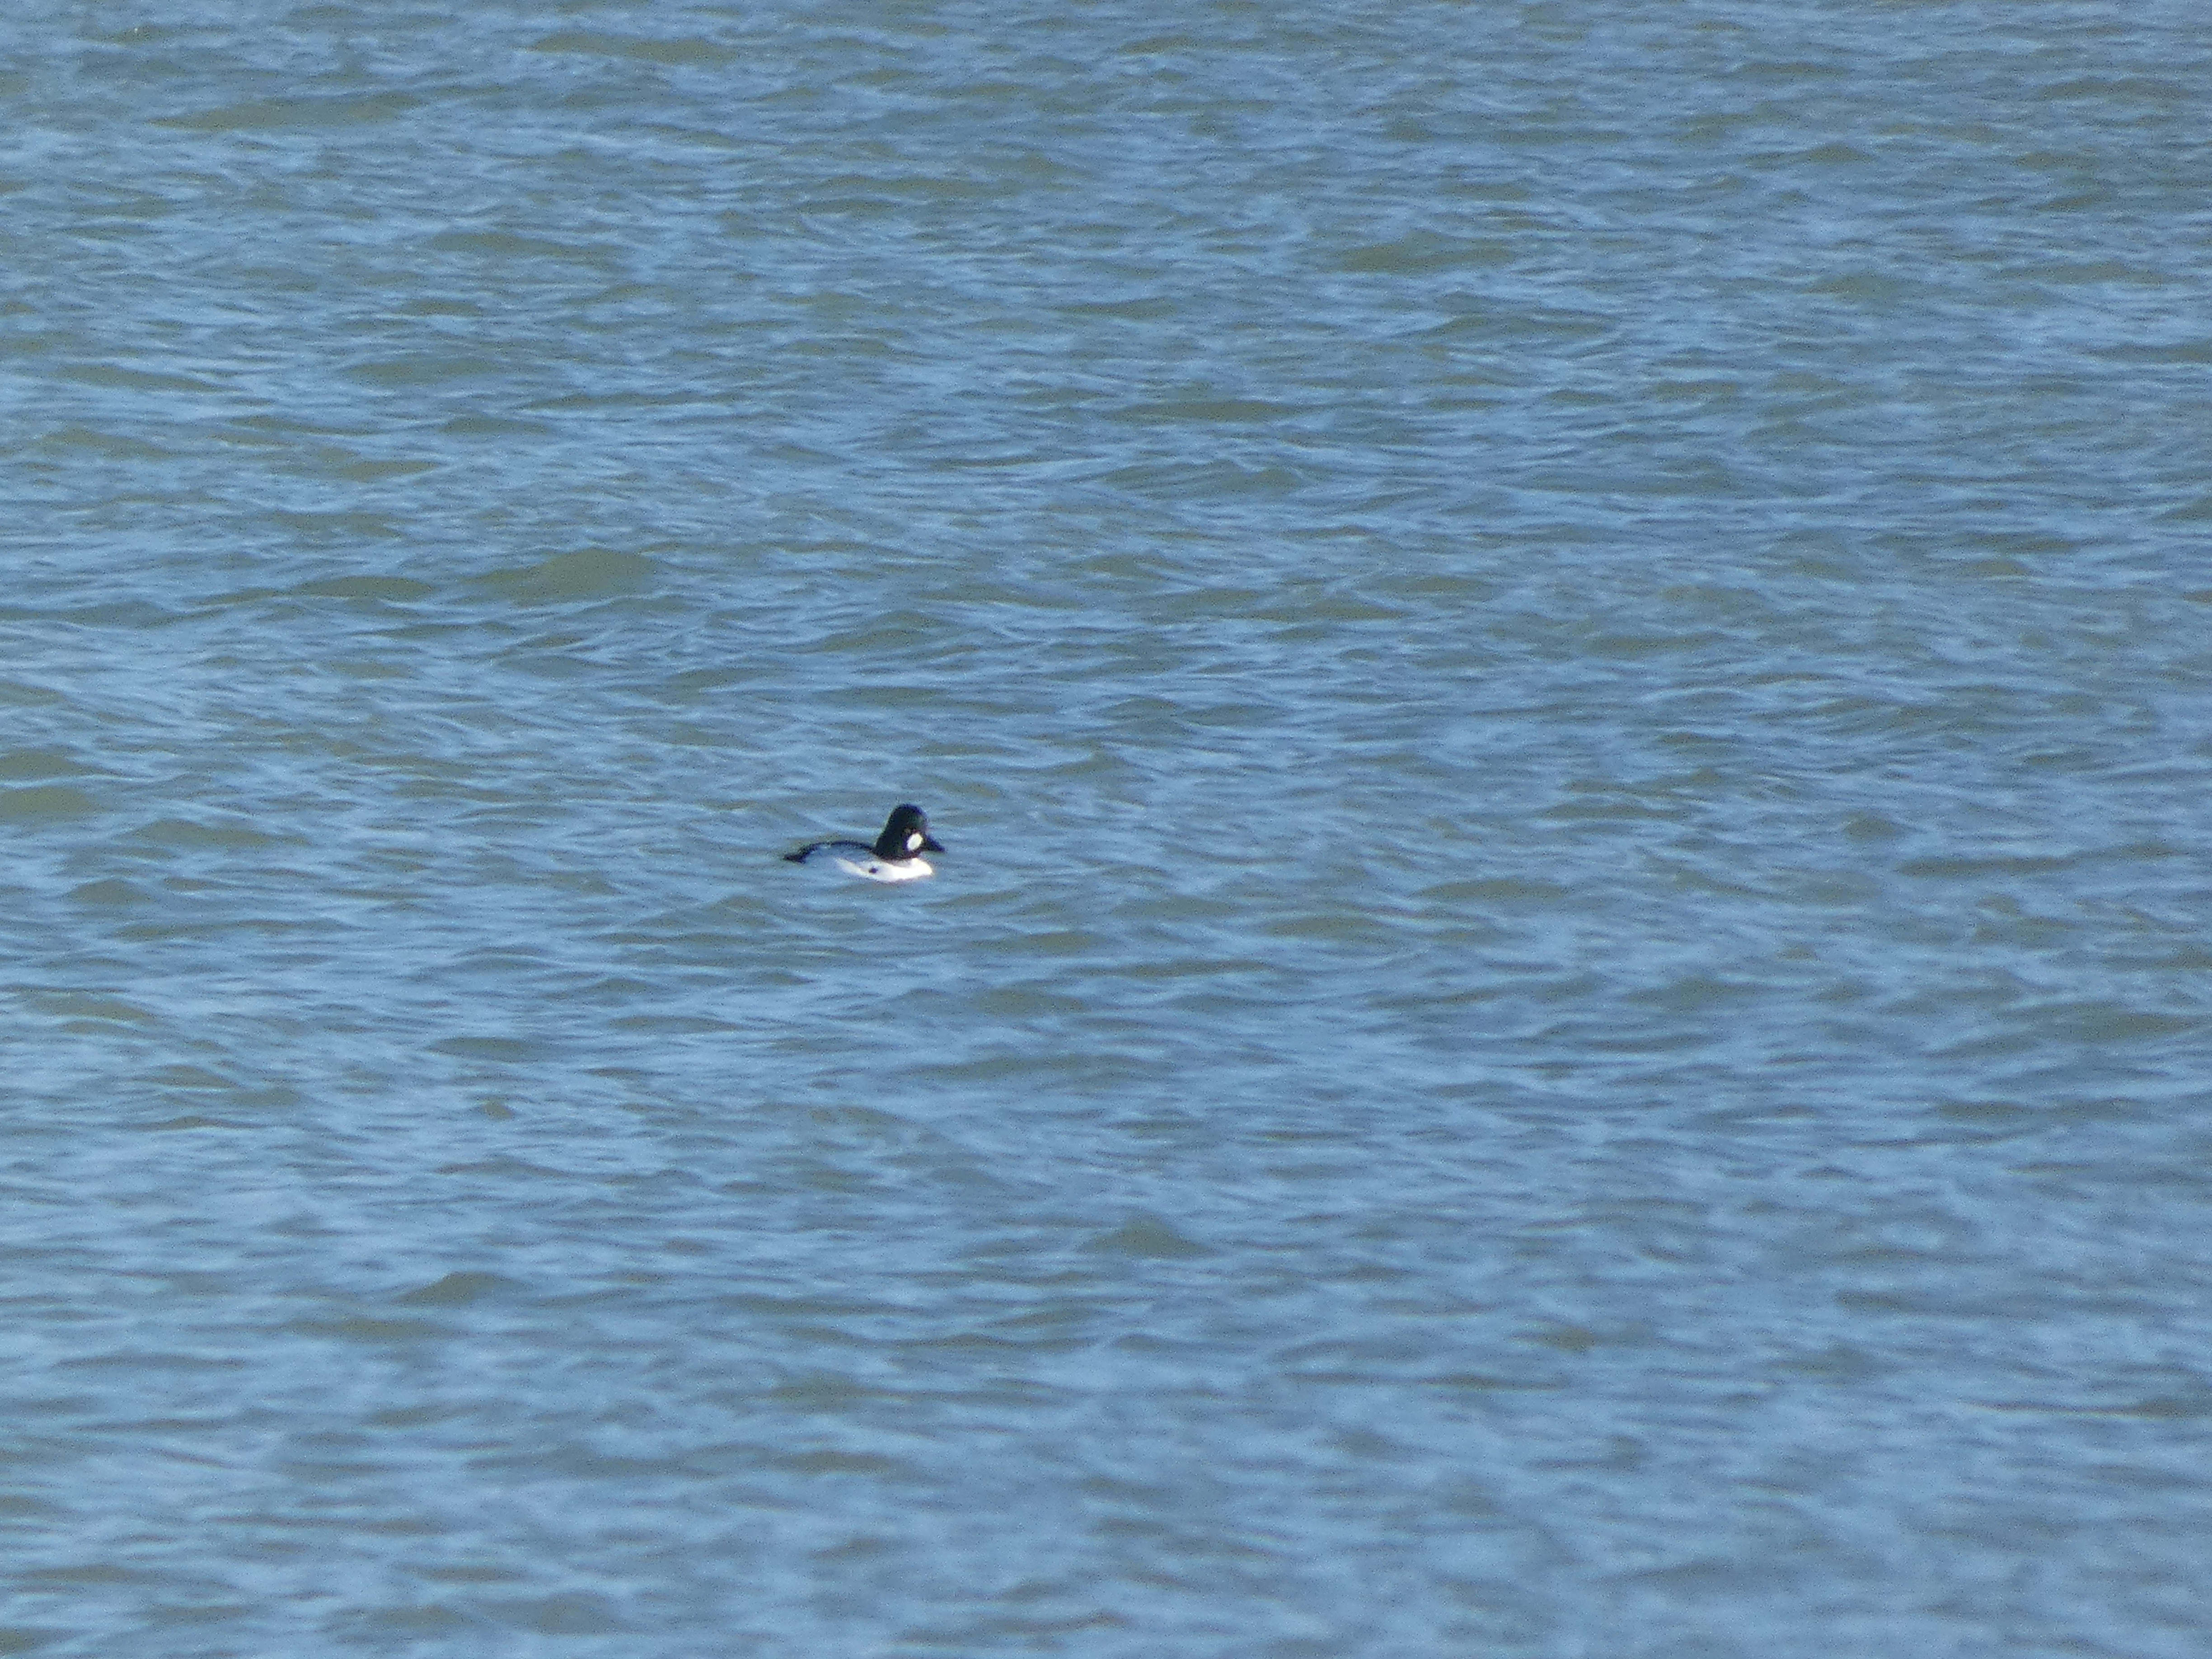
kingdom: Animalia
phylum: Chordata
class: Aves
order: Anseriformes
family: Anatidae
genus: Bucephala
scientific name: Bucephala clangula
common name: Hvinand
